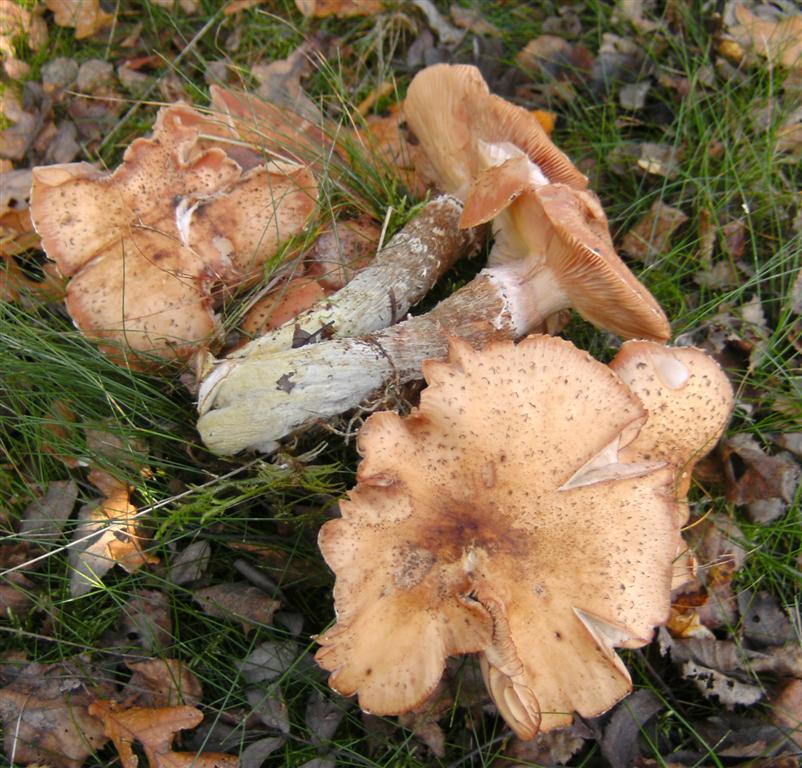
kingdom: Fungi
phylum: Basidiomycota
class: Agaricomycetes
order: Agaricales
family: Physalacriaceae
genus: Armillaria
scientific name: Armillaria lutea
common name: køllestokket honningsvamp
